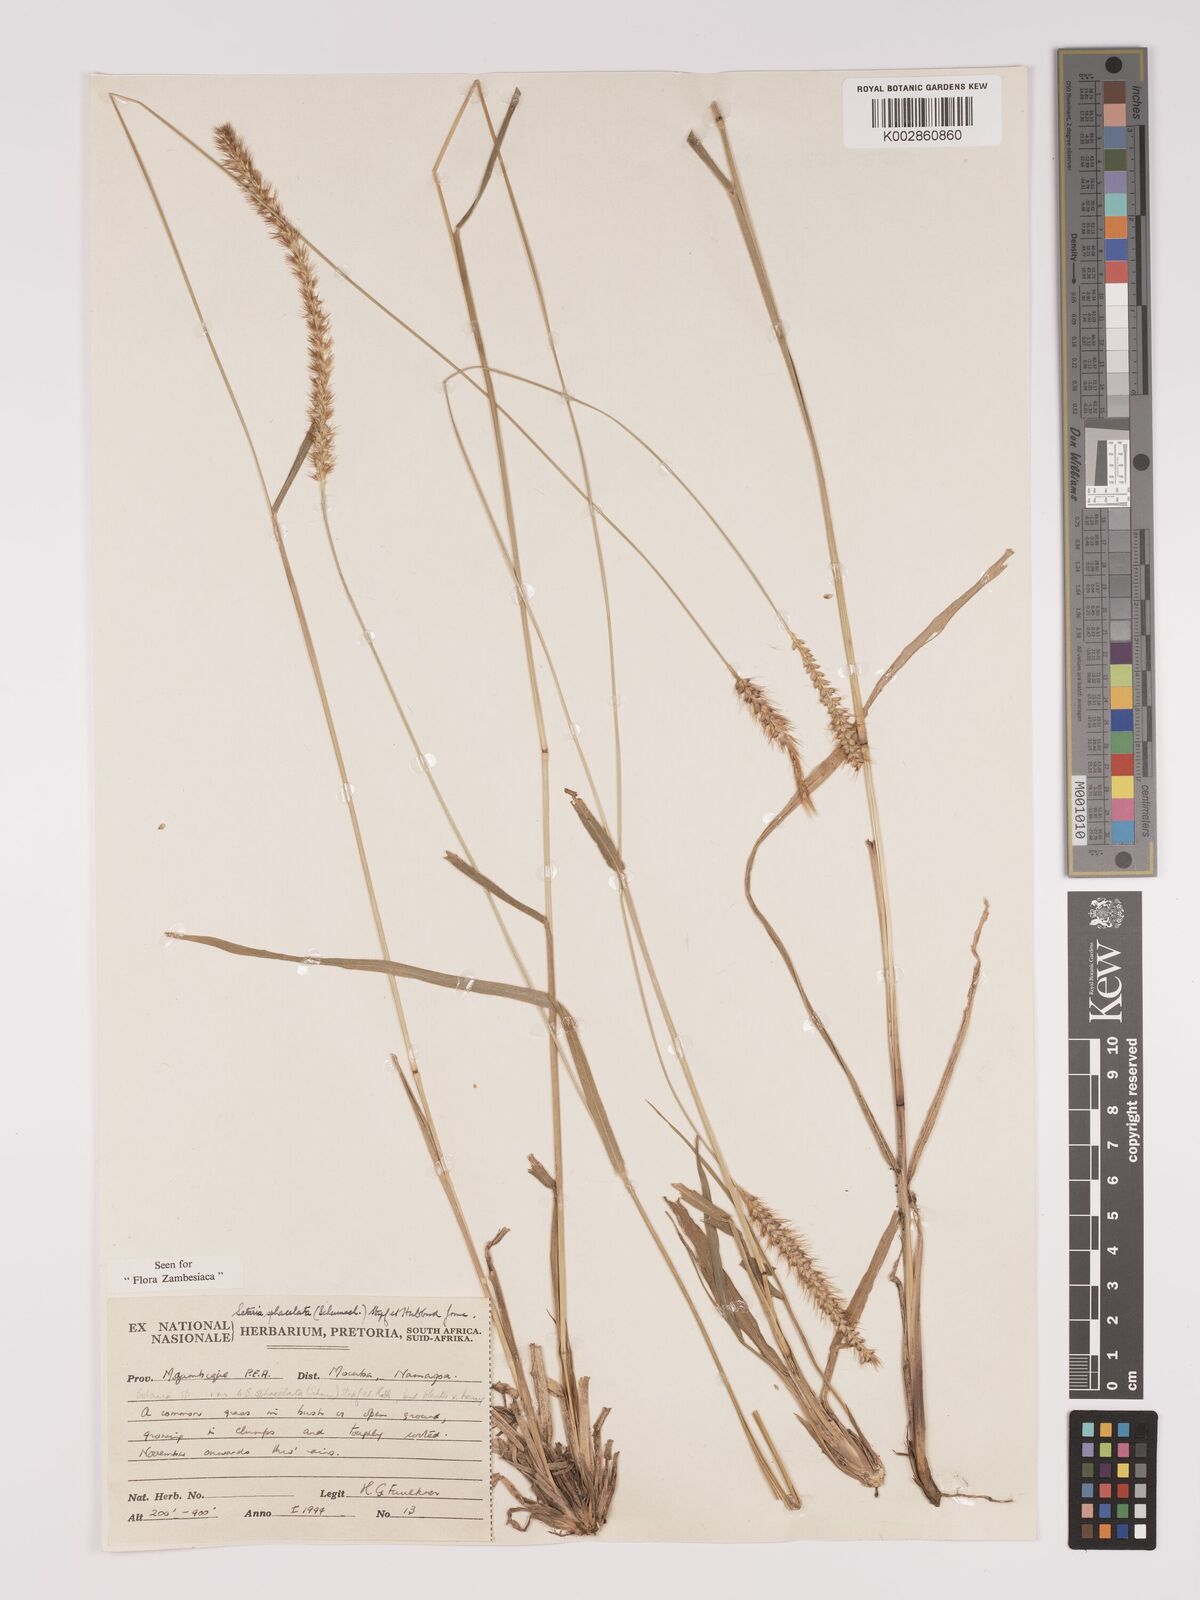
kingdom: Plantae
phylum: Tracheophyta
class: Liliopsida
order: Poales
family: Poaceae
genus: Setaria
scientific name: Setaria sphacelata
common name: African bristlegrass
